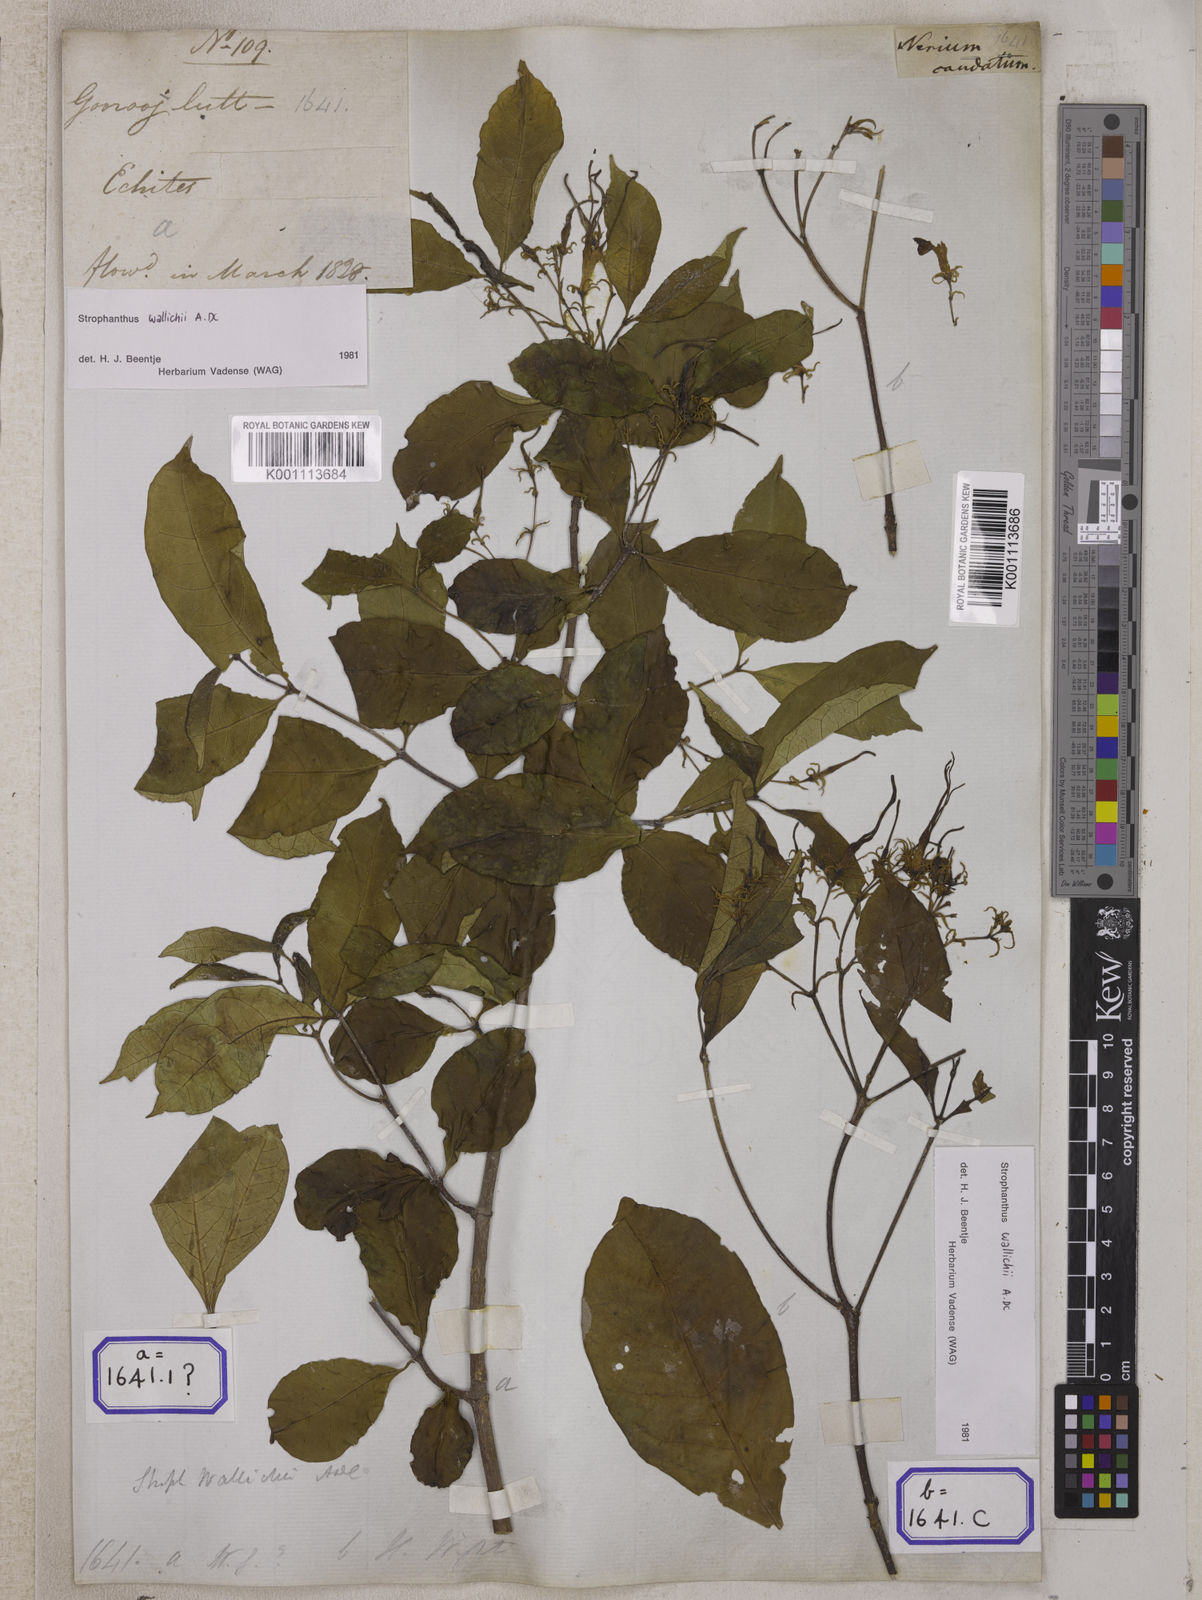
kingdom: Plantae
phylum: Tracheophyta
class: Magnoliopsida
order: Gentianales
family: Apocynaceae
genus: Strophanthus
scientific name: Strophanthus caudatus
